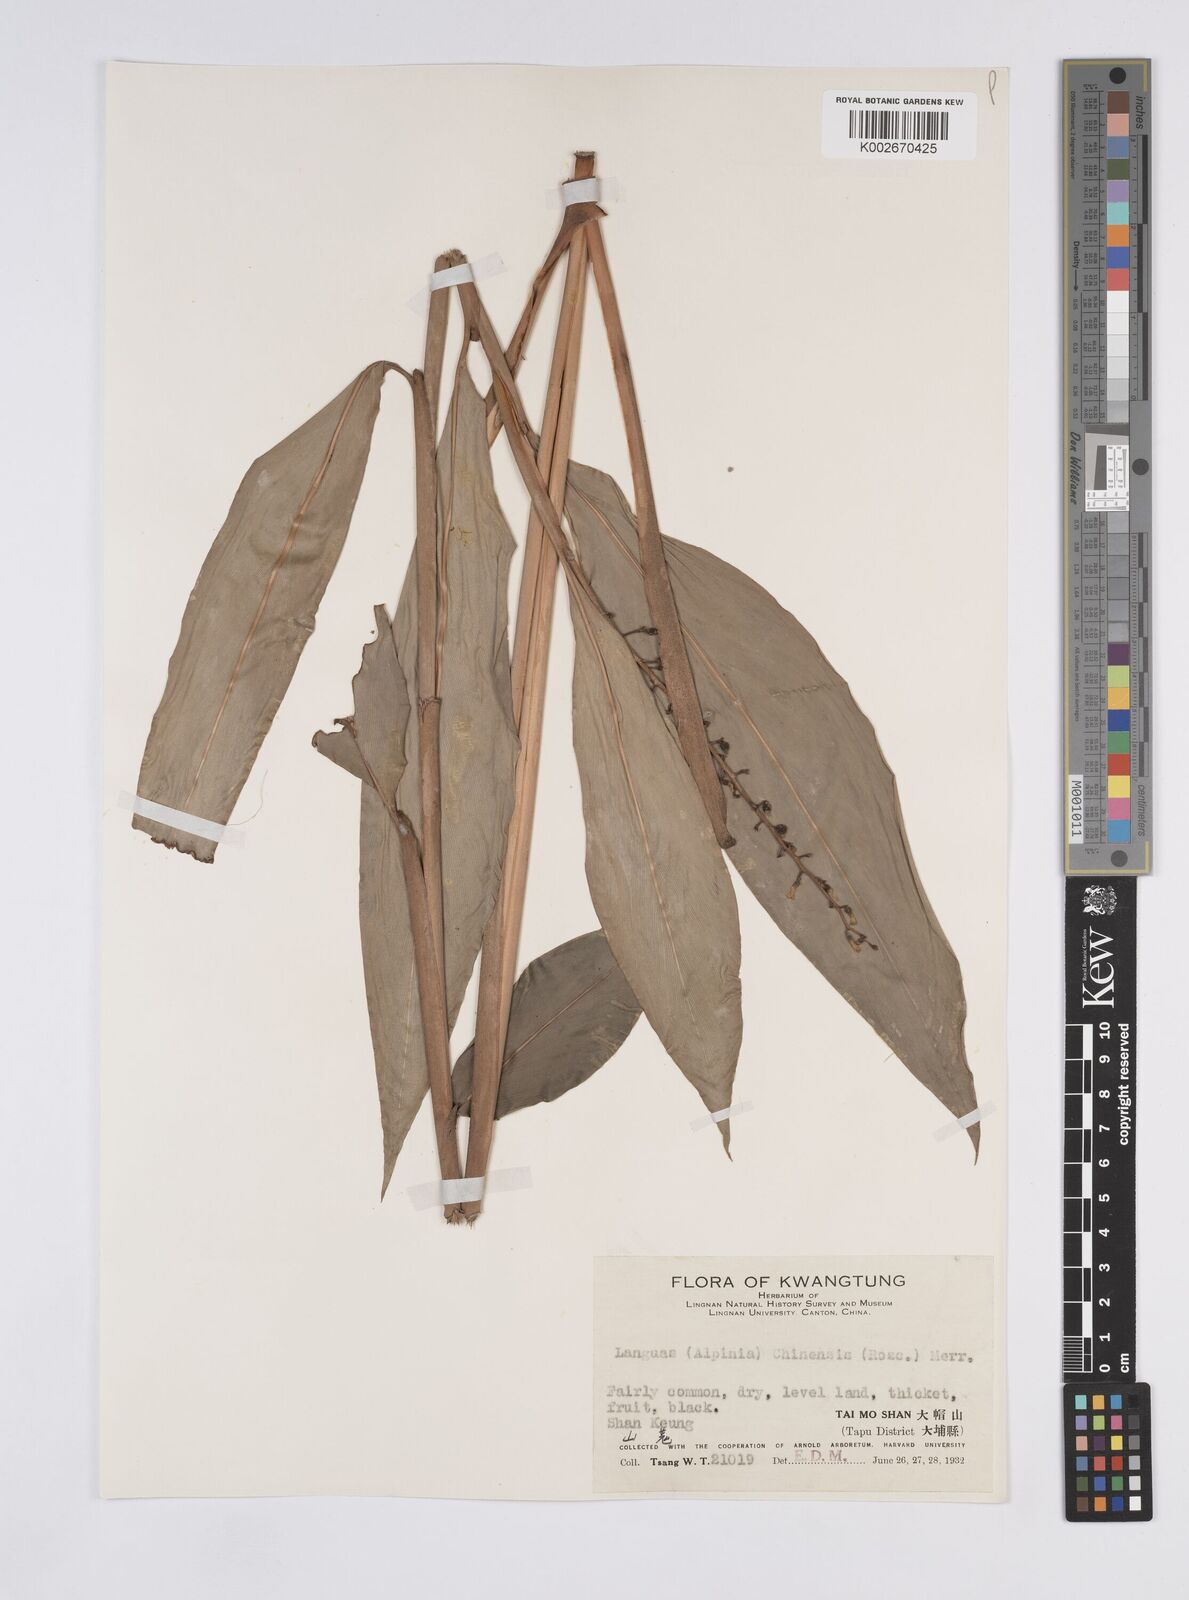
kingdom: Plantae
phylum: Tracheophyta
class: Liliopsida
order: Zingiberales
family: Zingiberaceae
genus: Alpinia
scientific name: Alpinia chinensis
